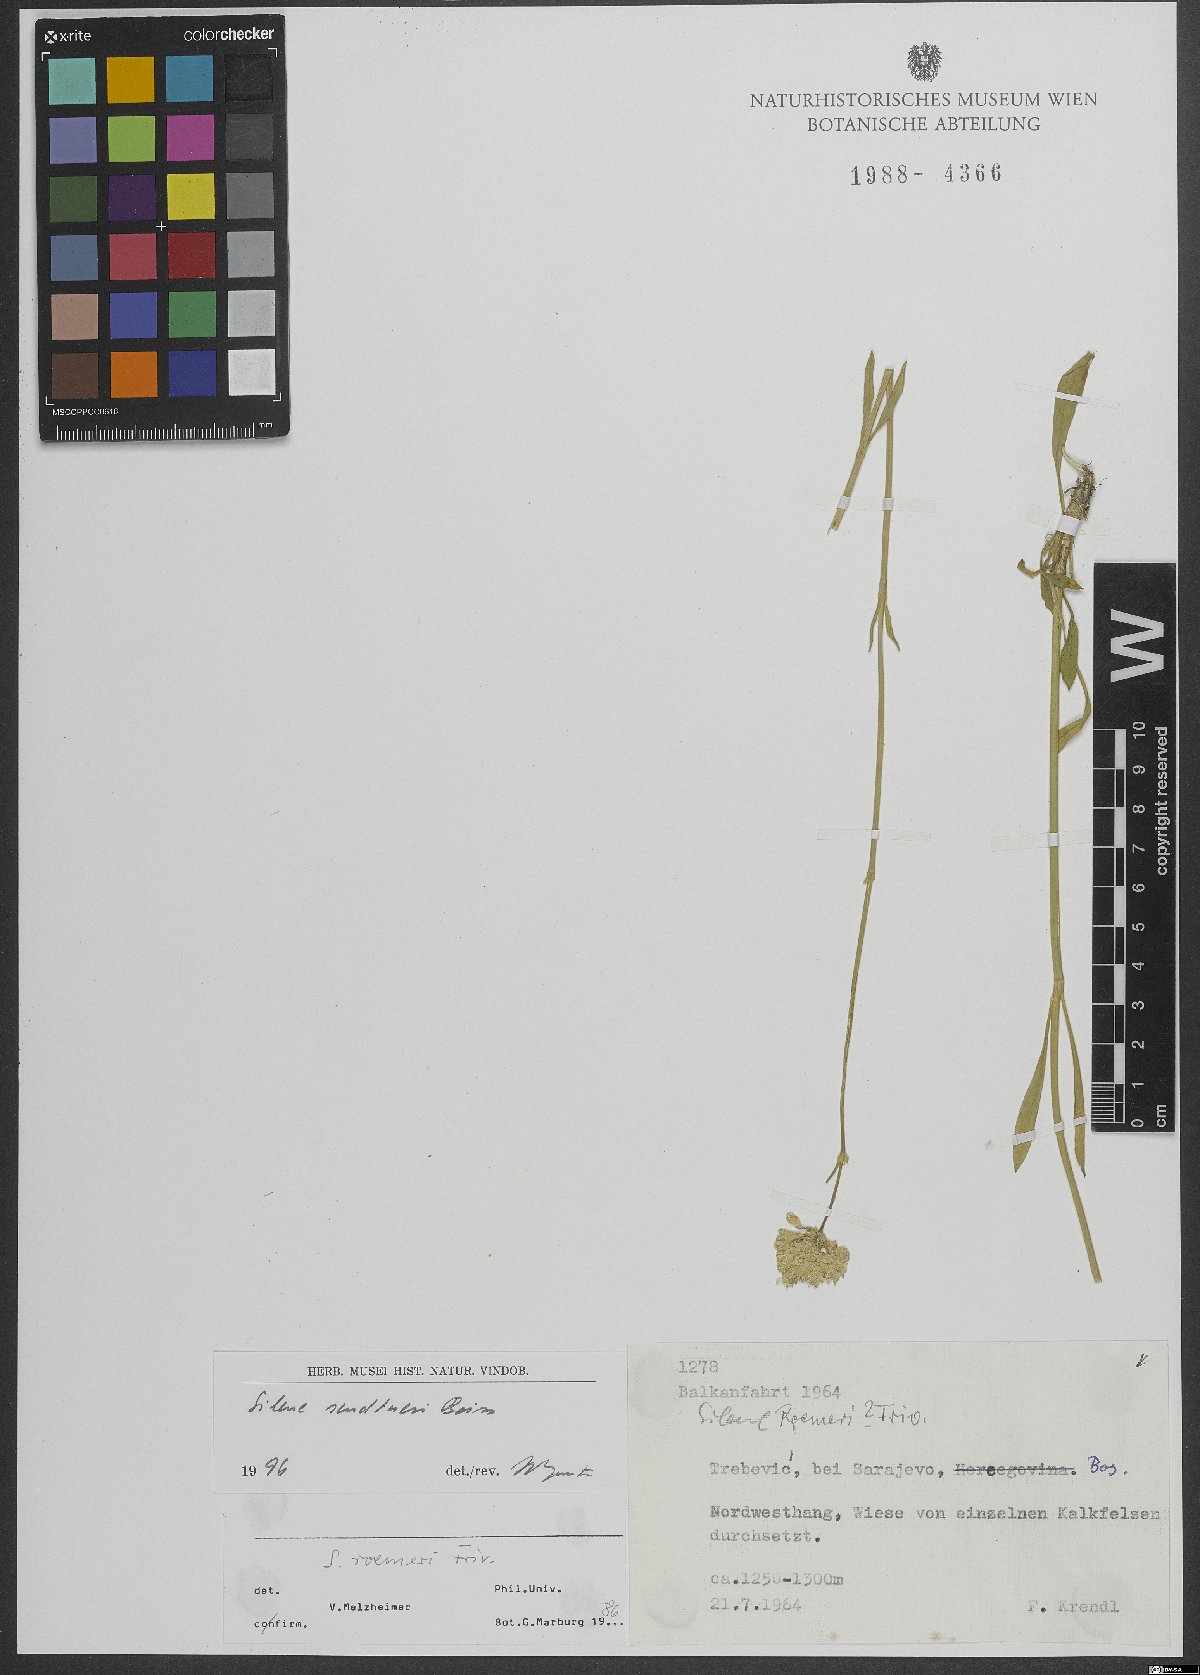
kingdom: Plantae
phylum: Tracheophyta
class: Magnoliopsida
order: Caryophyllales
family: Caryophyllaceae
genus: Silene
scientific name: Silene sendtneri
